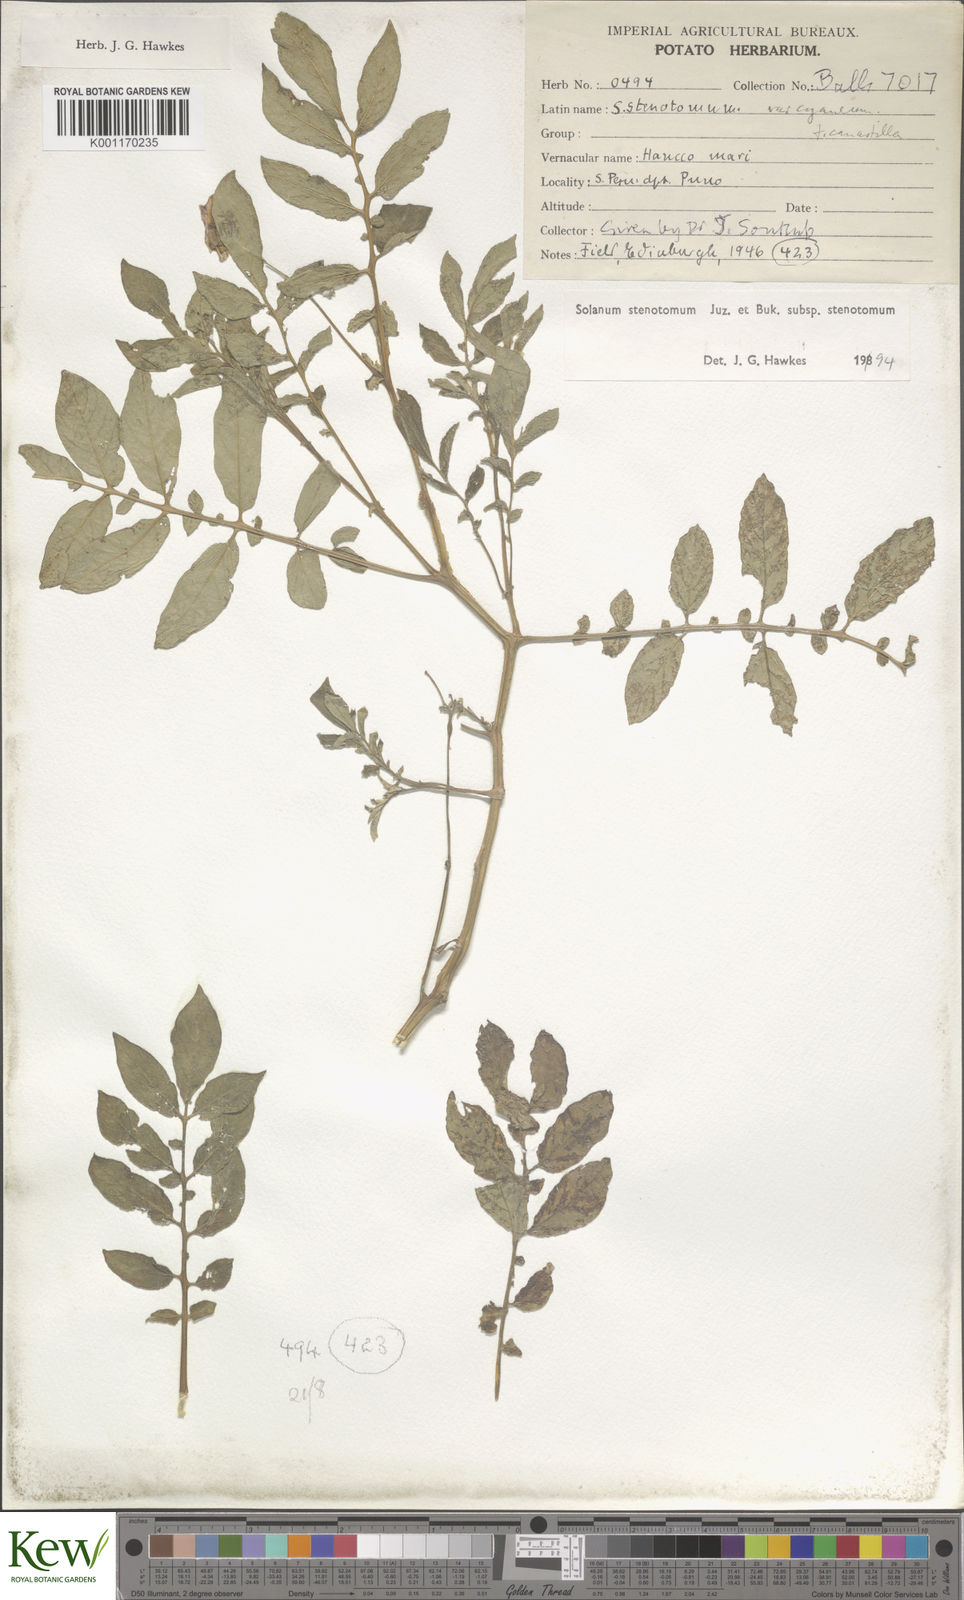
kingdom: Plantae
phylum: Tracheophyta
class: Magnoliopsida
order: Solanales
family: Solanaceae
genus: Solanum
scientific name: Solanum tuberosum
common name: Potato
